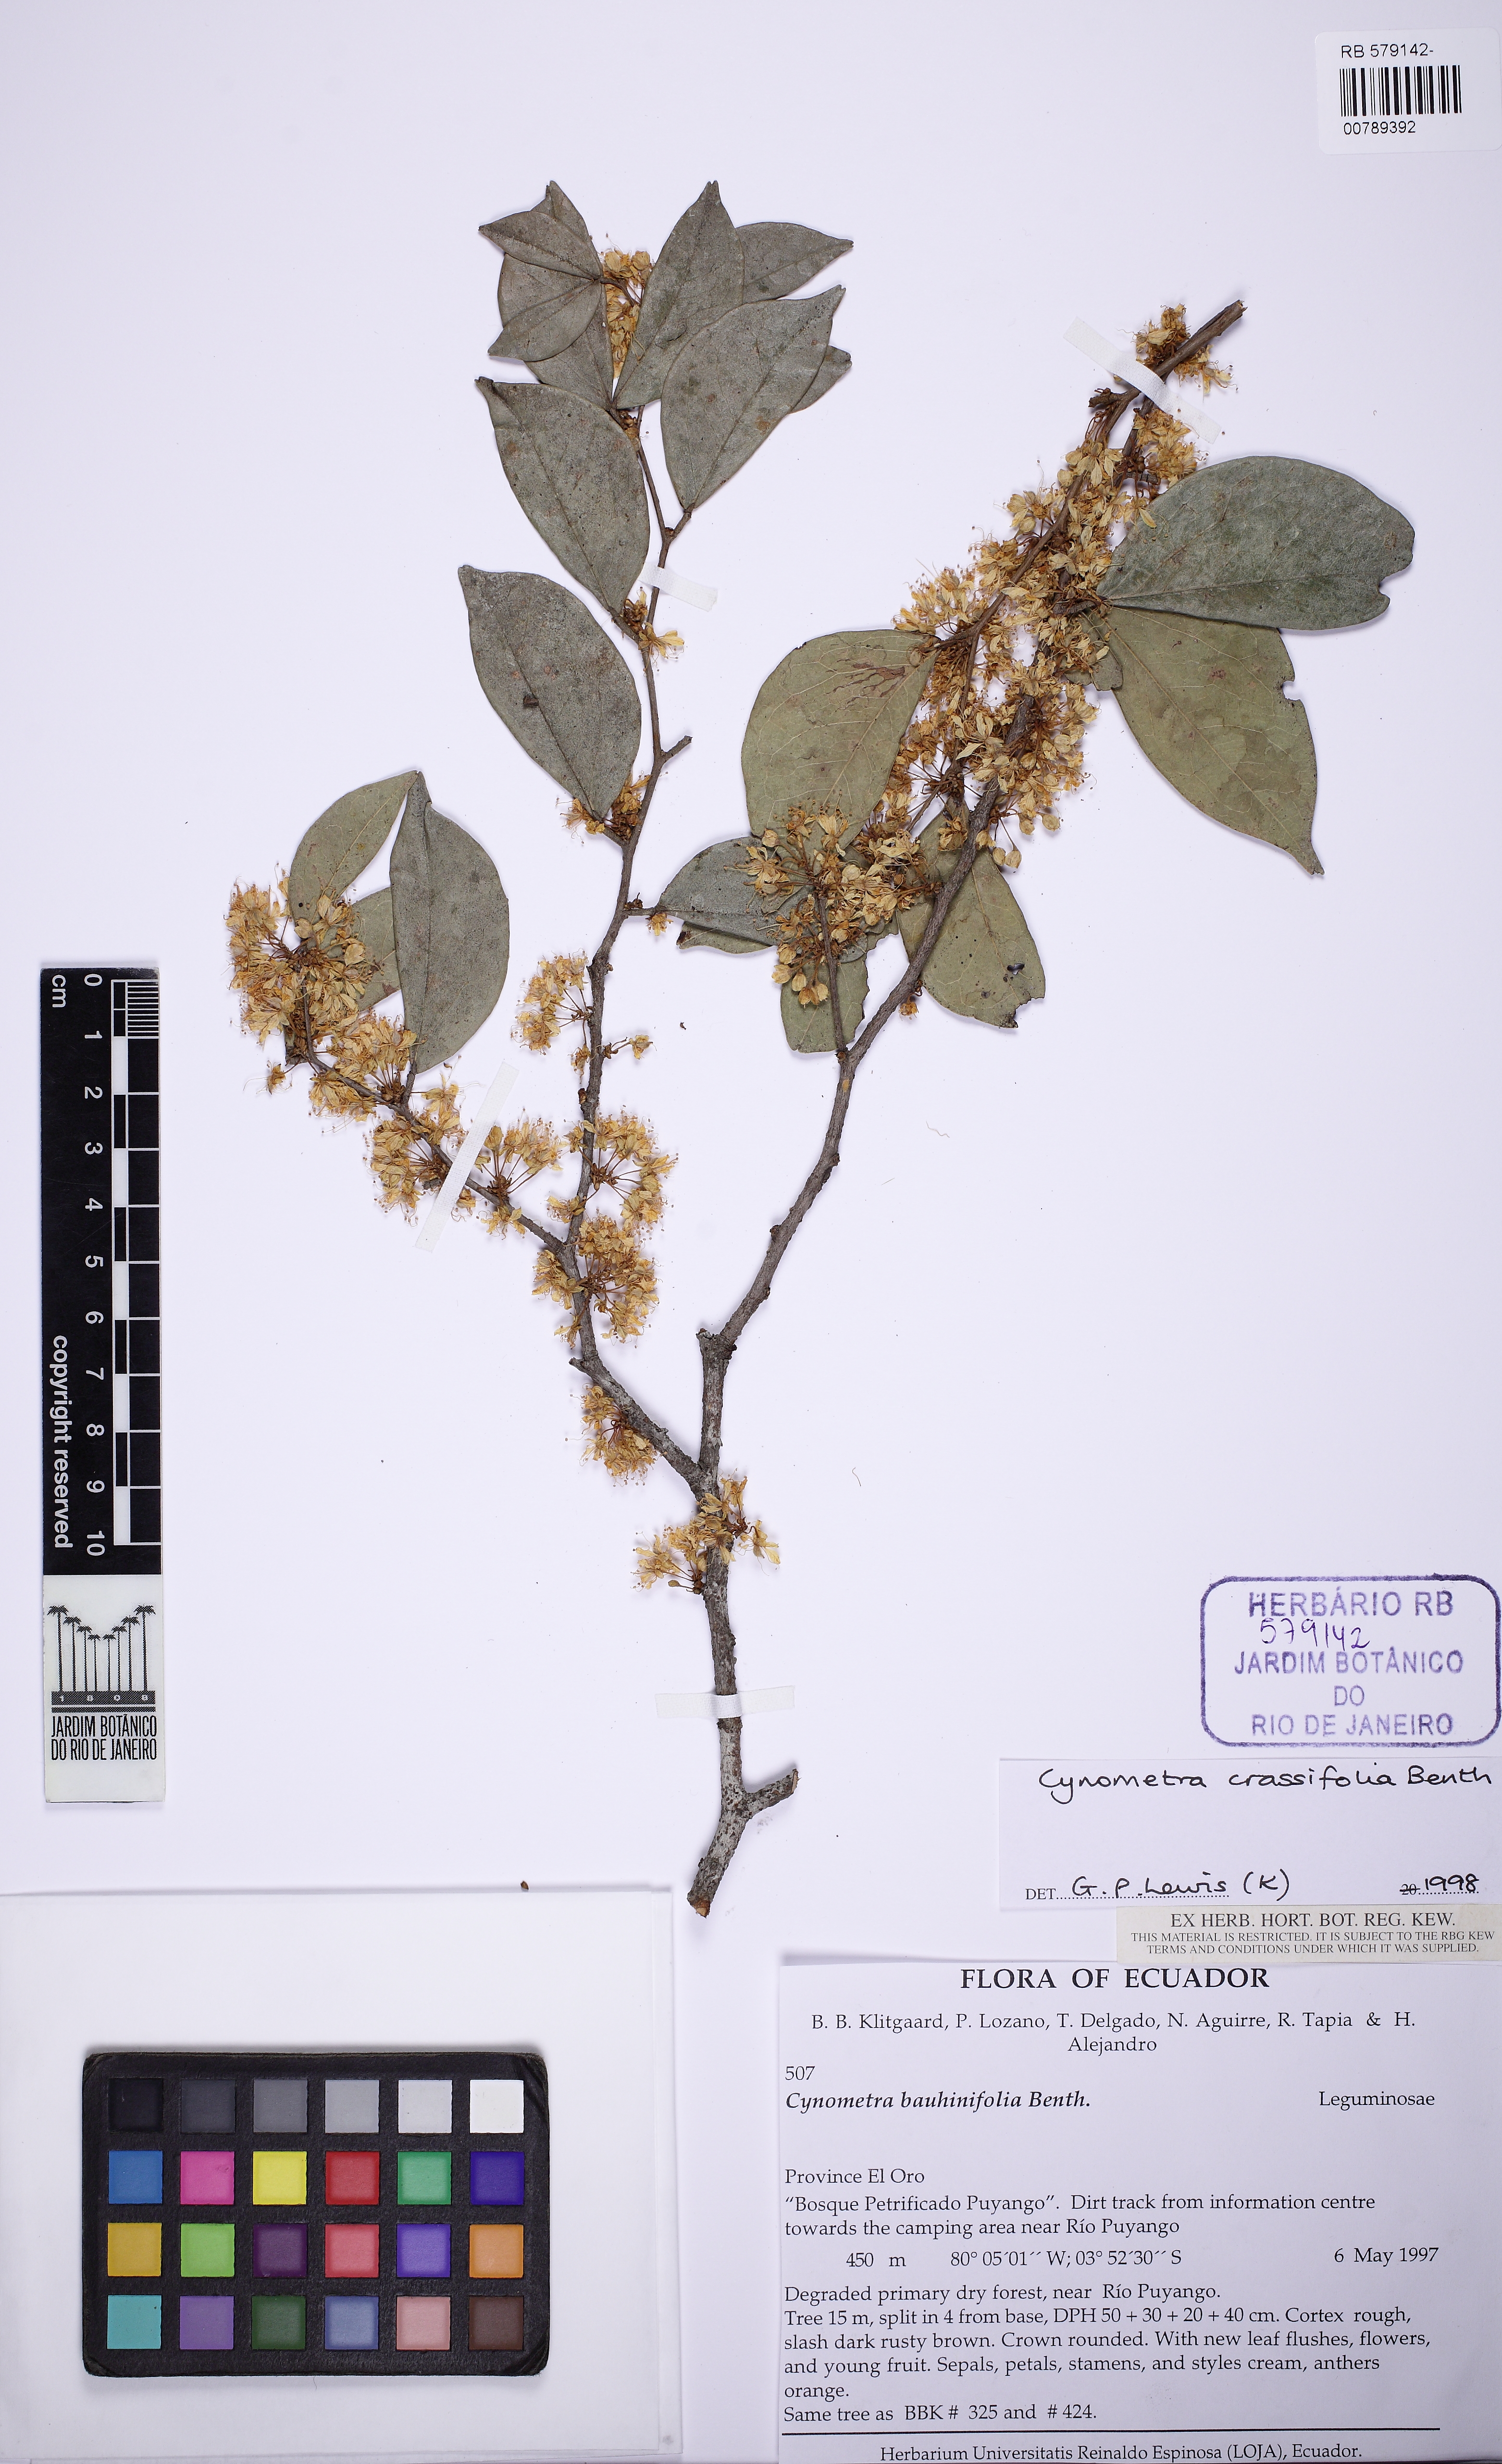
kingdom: Plantae
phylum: Tracheophyta
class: Magnoliopsida
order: Fabales
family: Fabaceae
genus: Cynometra
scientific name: Cynometra crassifolia
